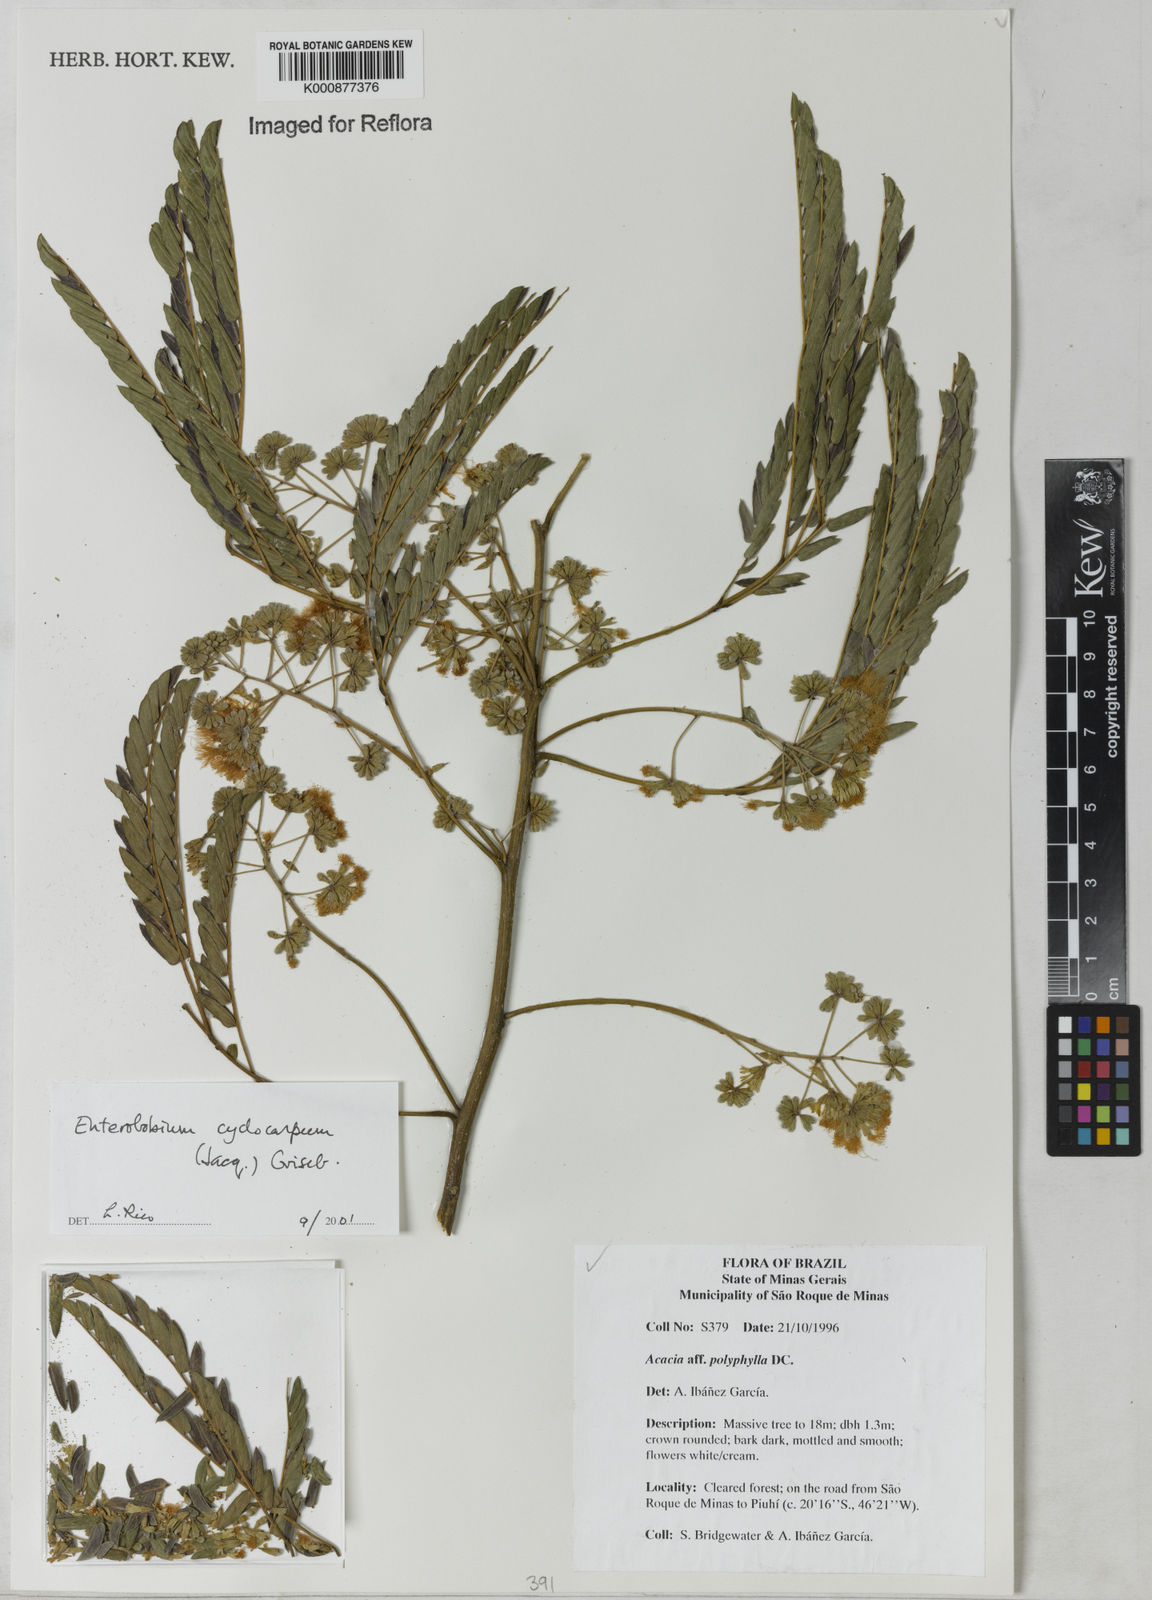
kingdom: Plantae
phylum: Tracheophyta
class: Magnoliopsida
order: Fabales
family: Fabaceae
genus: Enterolobium
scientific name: Enterolobium cyclocarpum
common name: Ear tree
